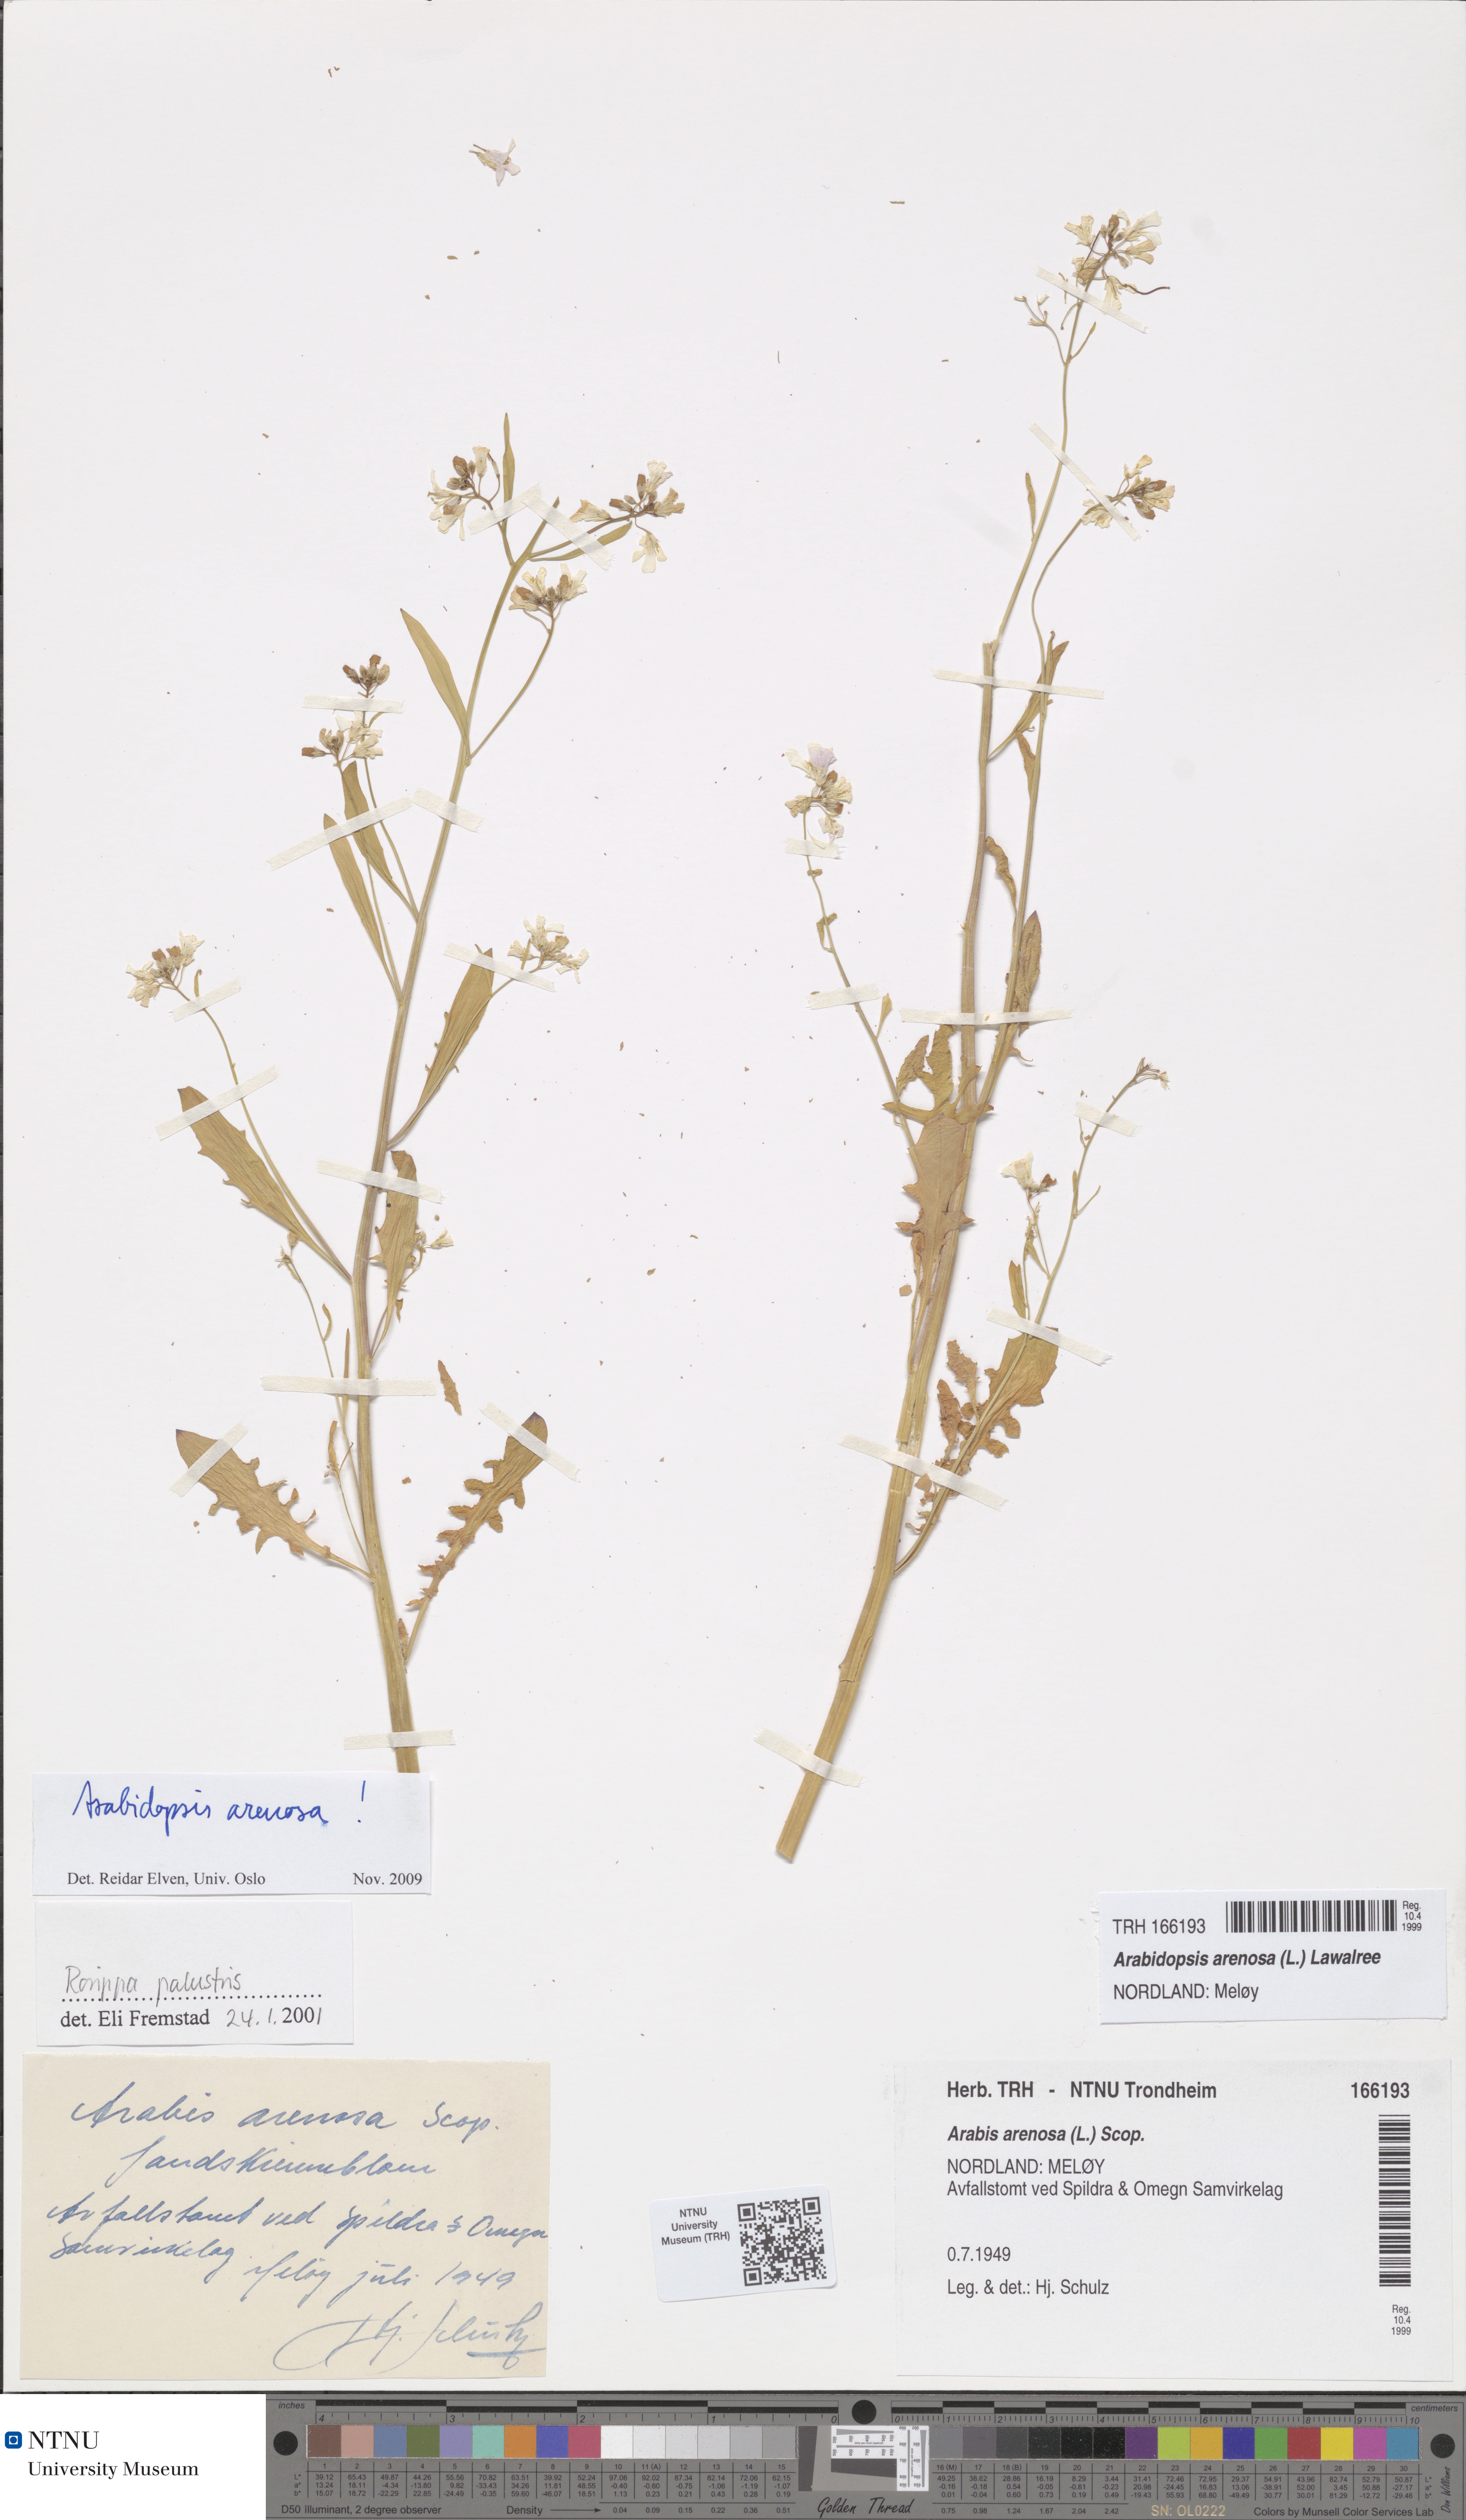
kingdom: Plantae
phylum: Tracheophyta
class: Magnoliopsida
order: Brassicales
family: Brassicaceae
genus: Arabidopsis
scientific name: Arabidopsis arenosa
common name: Sand rock-cress
